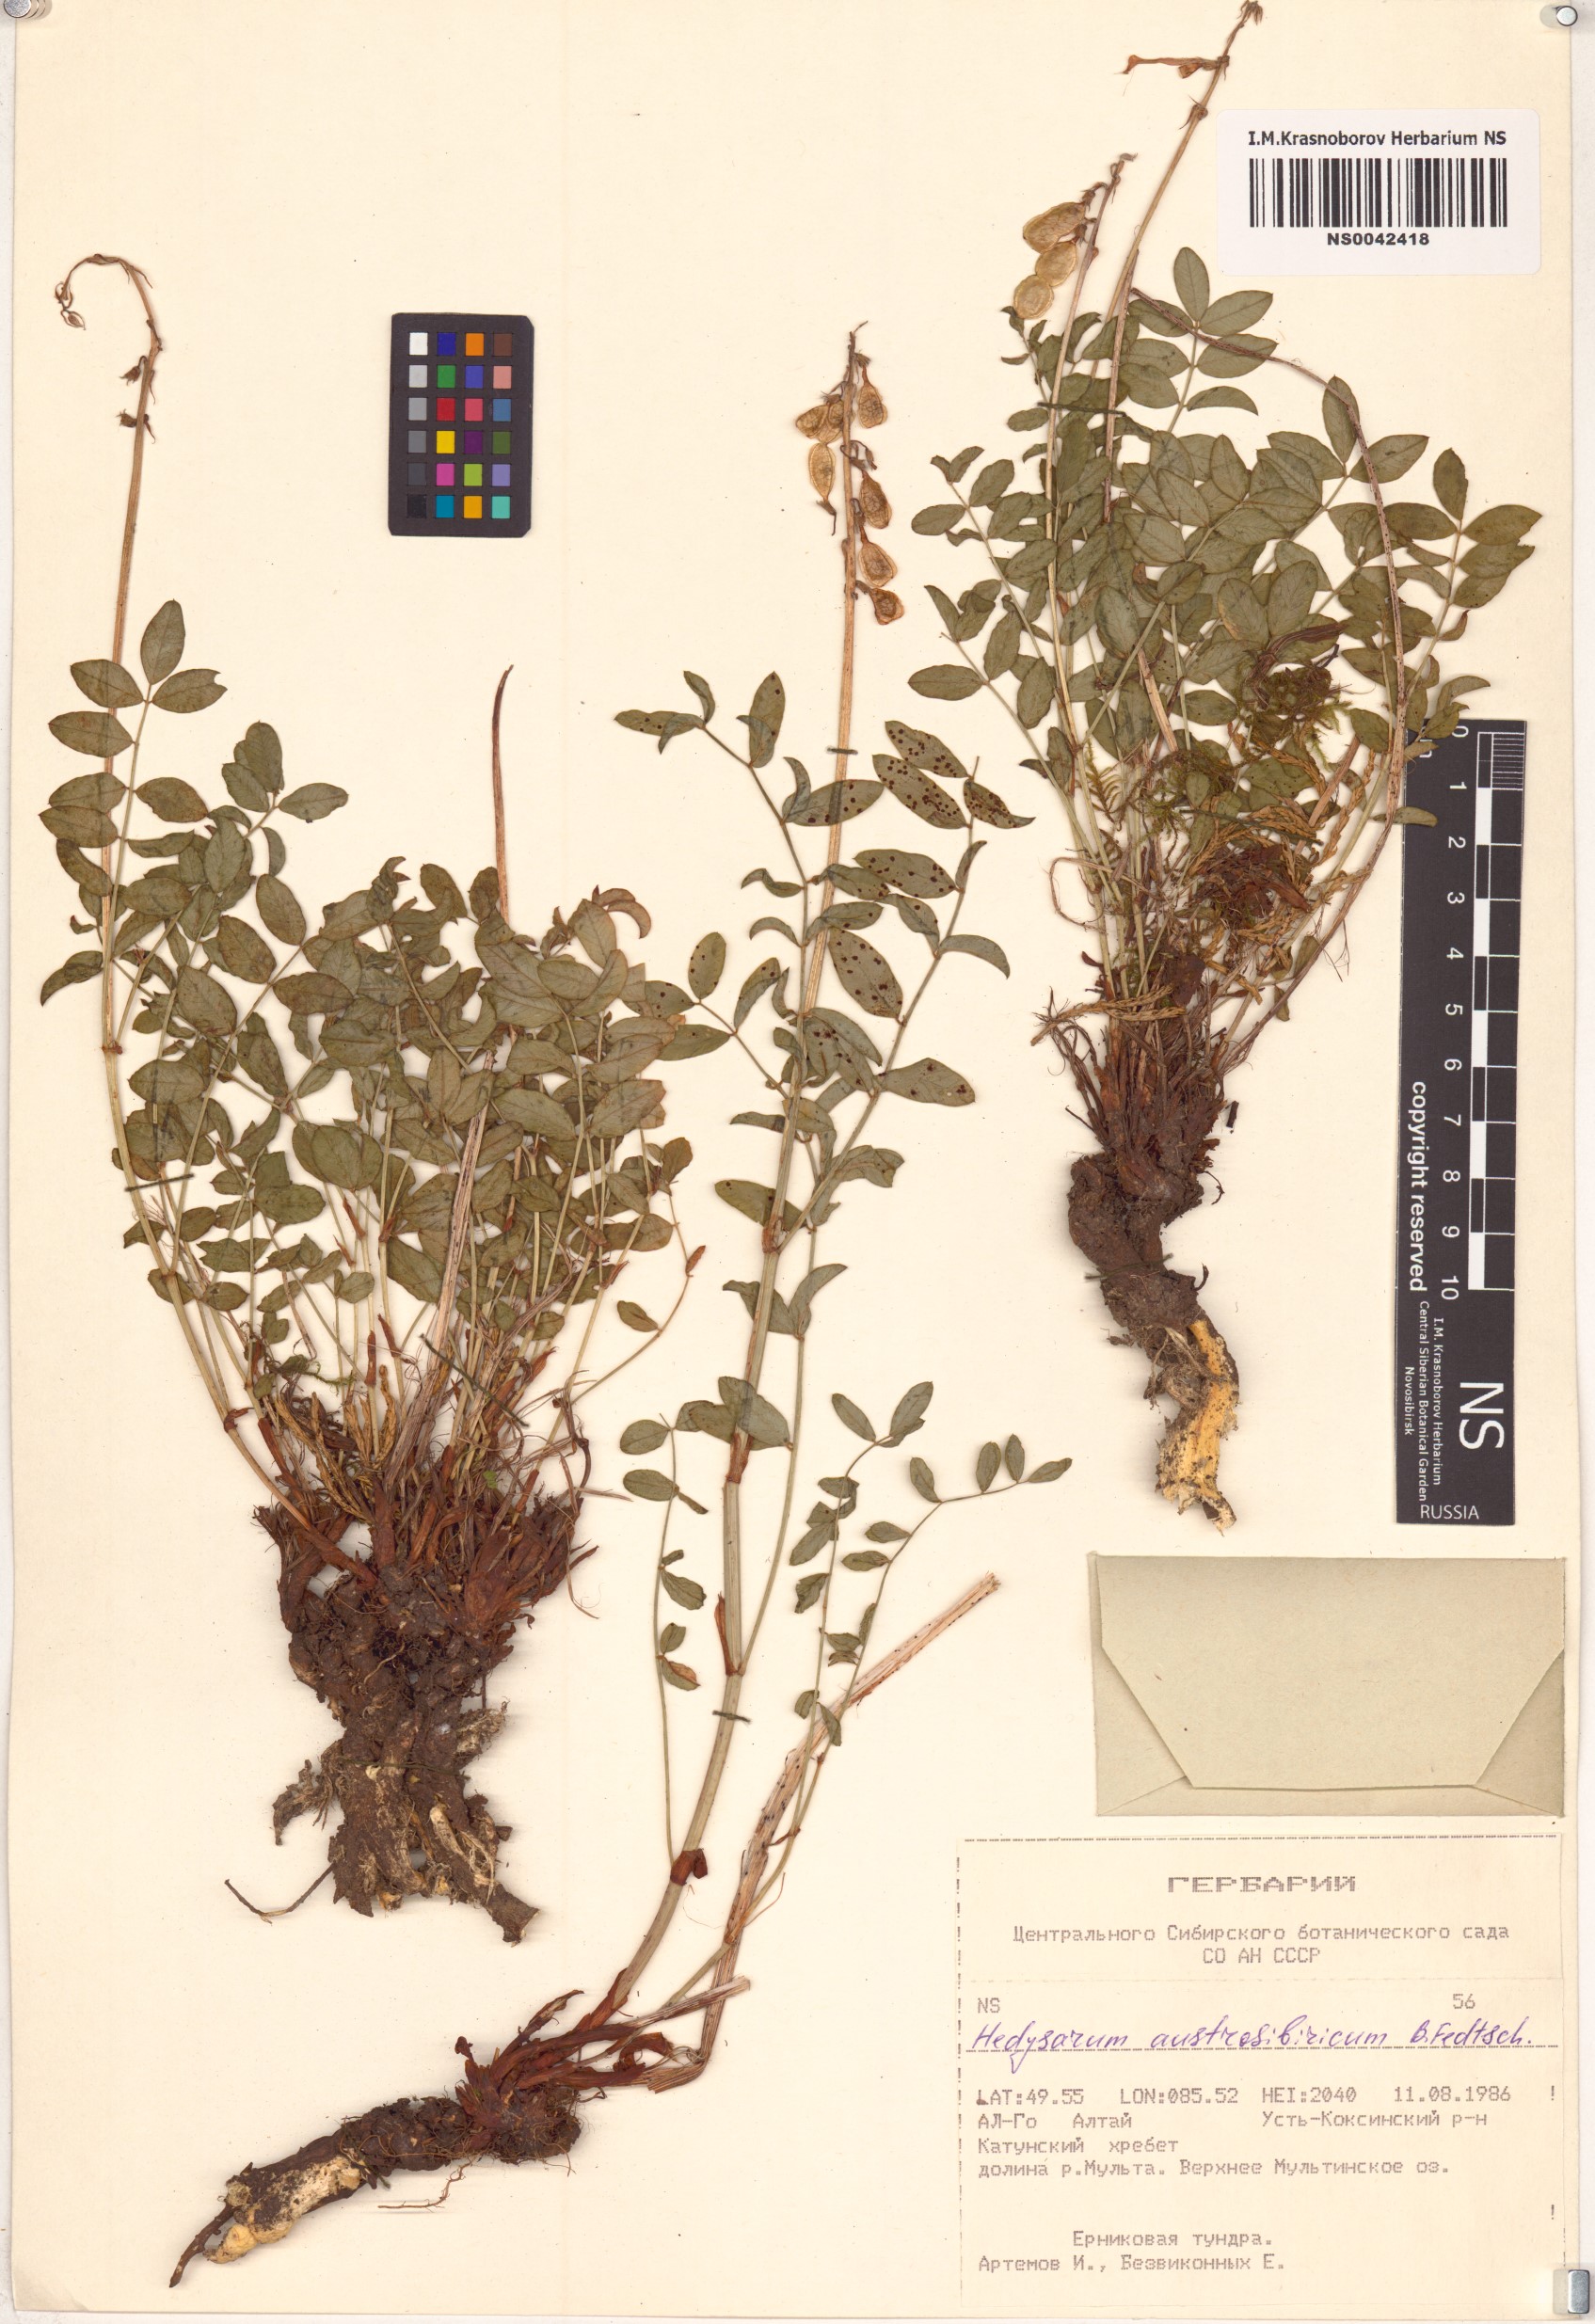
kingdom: Plantae
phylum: Tracheophyta
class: Magnoliopsida
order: Fabales
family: Fabaceae
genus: Hedysarum
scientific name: Hedysarum neglectum
